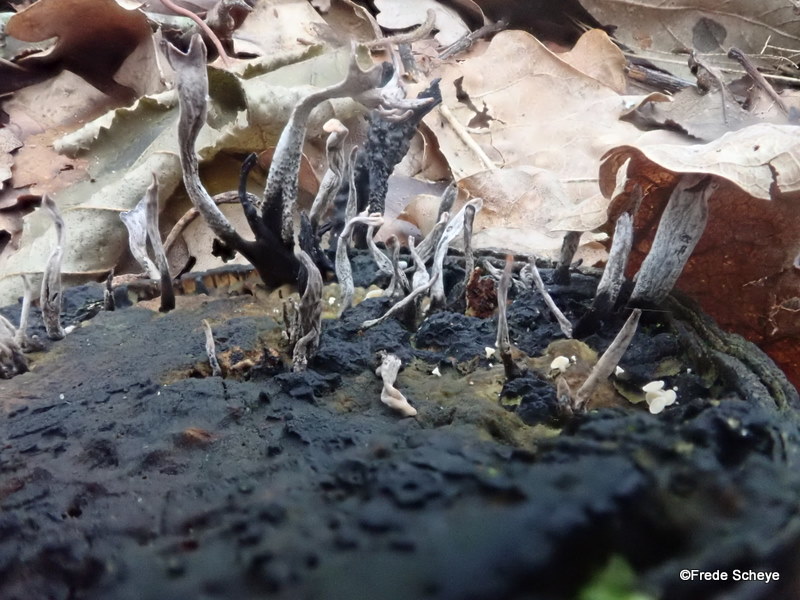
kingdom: Fungi
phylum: Ascomycota
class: Sordariomycetes
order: Xylariales
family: Xylariaceae
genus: Xylaria
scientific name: Xylaria hypoxylon
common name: grenet stødsvamp
